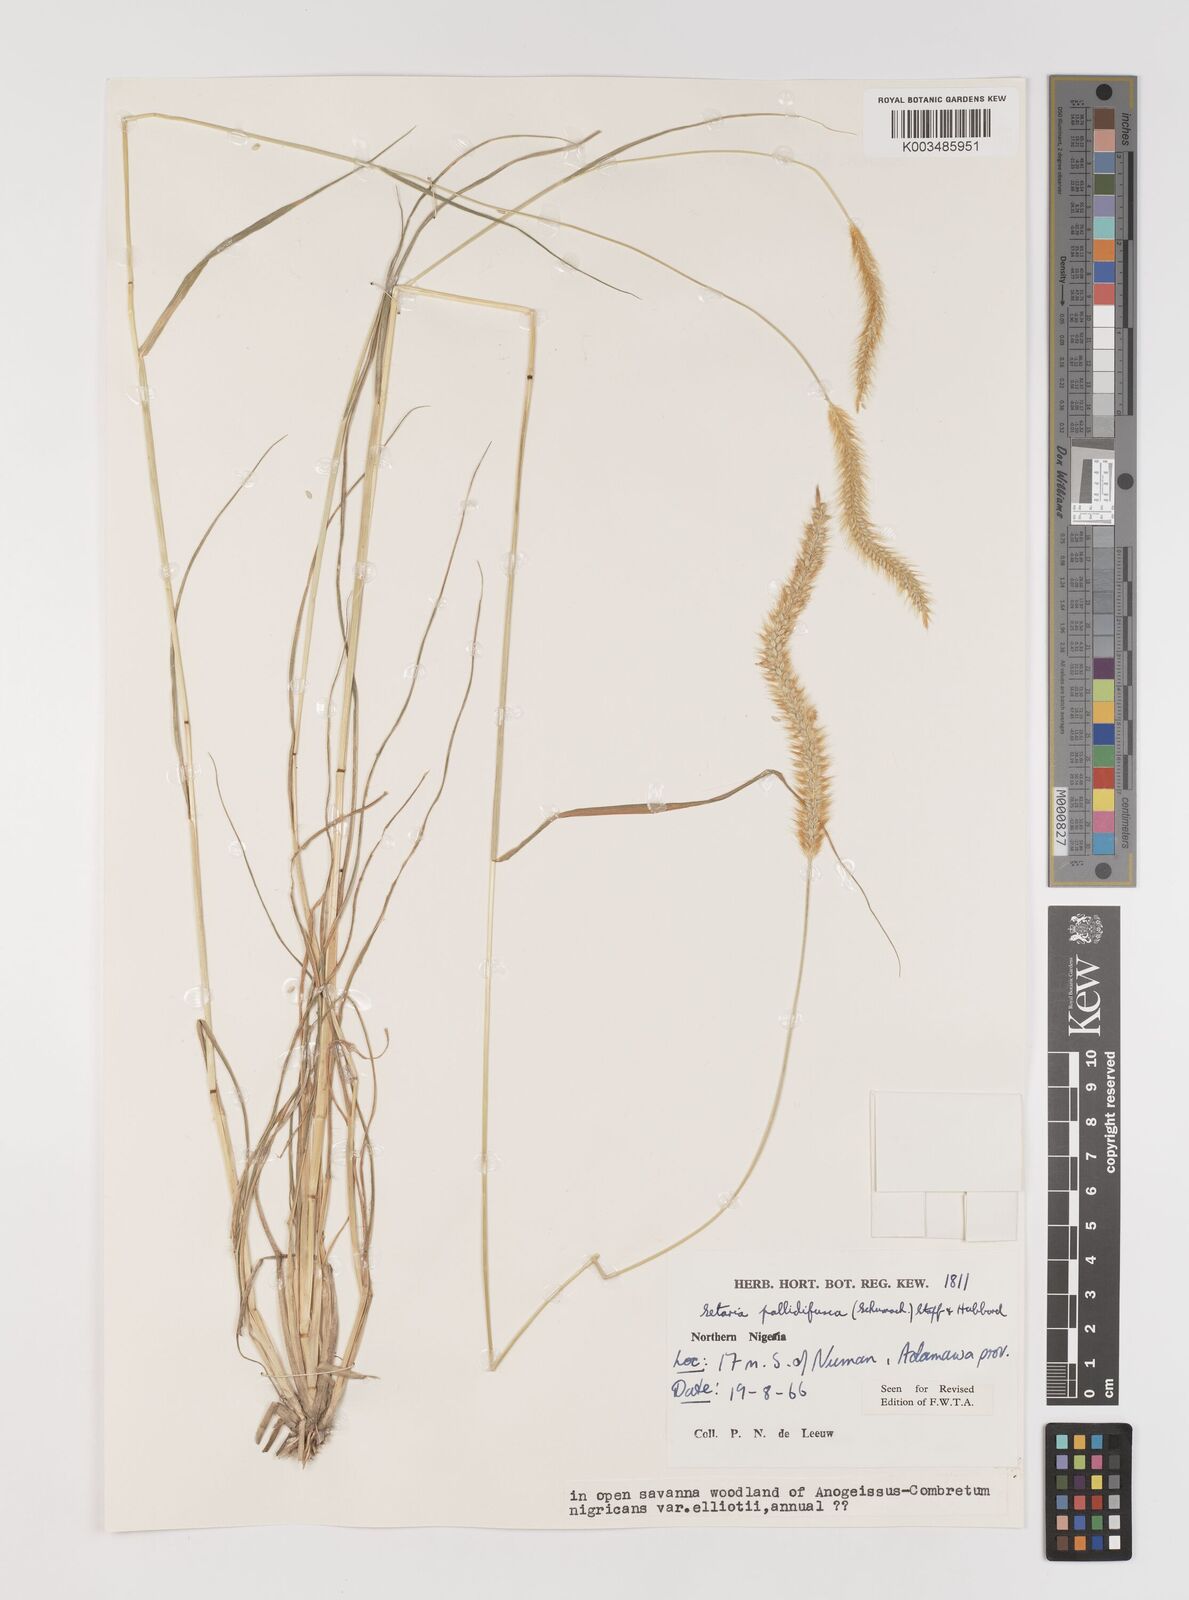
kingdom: Plantae
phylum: Tracheophyta
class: Liliopsida
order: Poales
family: Poaceae
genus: Setaria
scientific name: Setaria pumila
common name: Yellow bristle-grass
